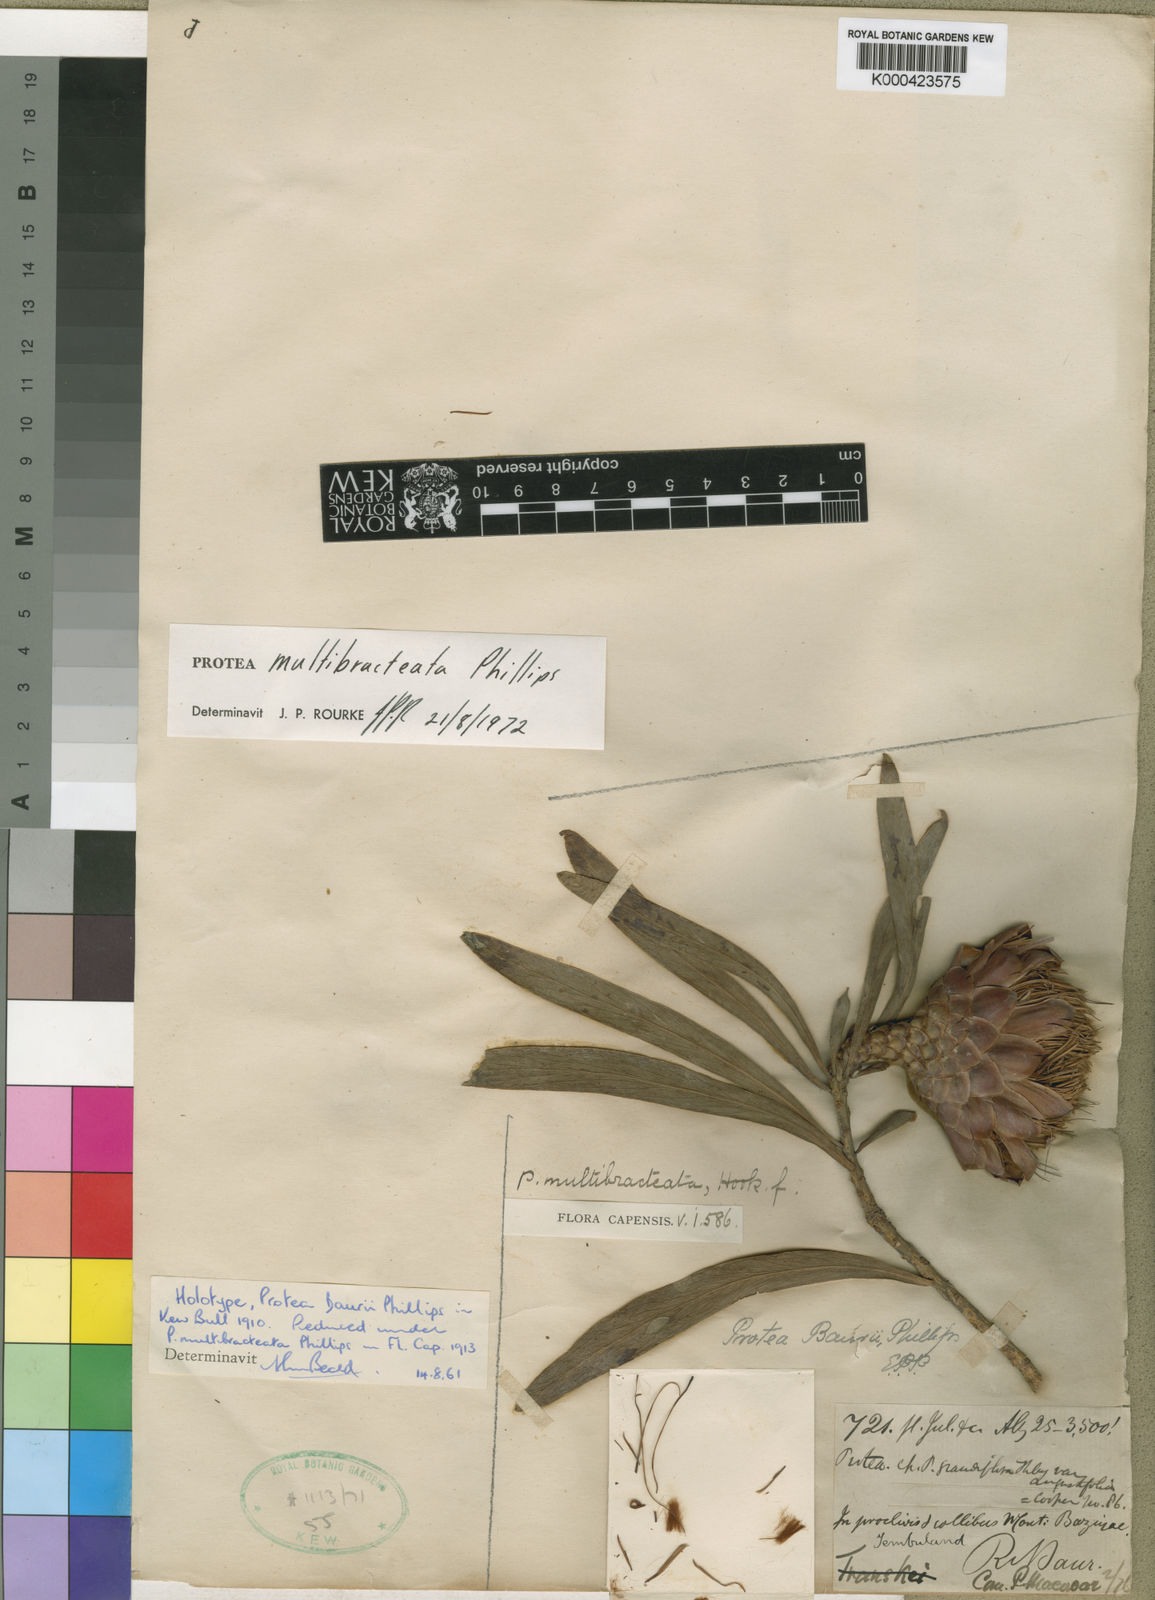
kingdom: Plantae
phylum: Tracheophyta
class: Magnoliopsida
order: Proteales
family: Proteaceae
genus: Protea
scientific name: Protea caffra
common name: Common sugarbush
